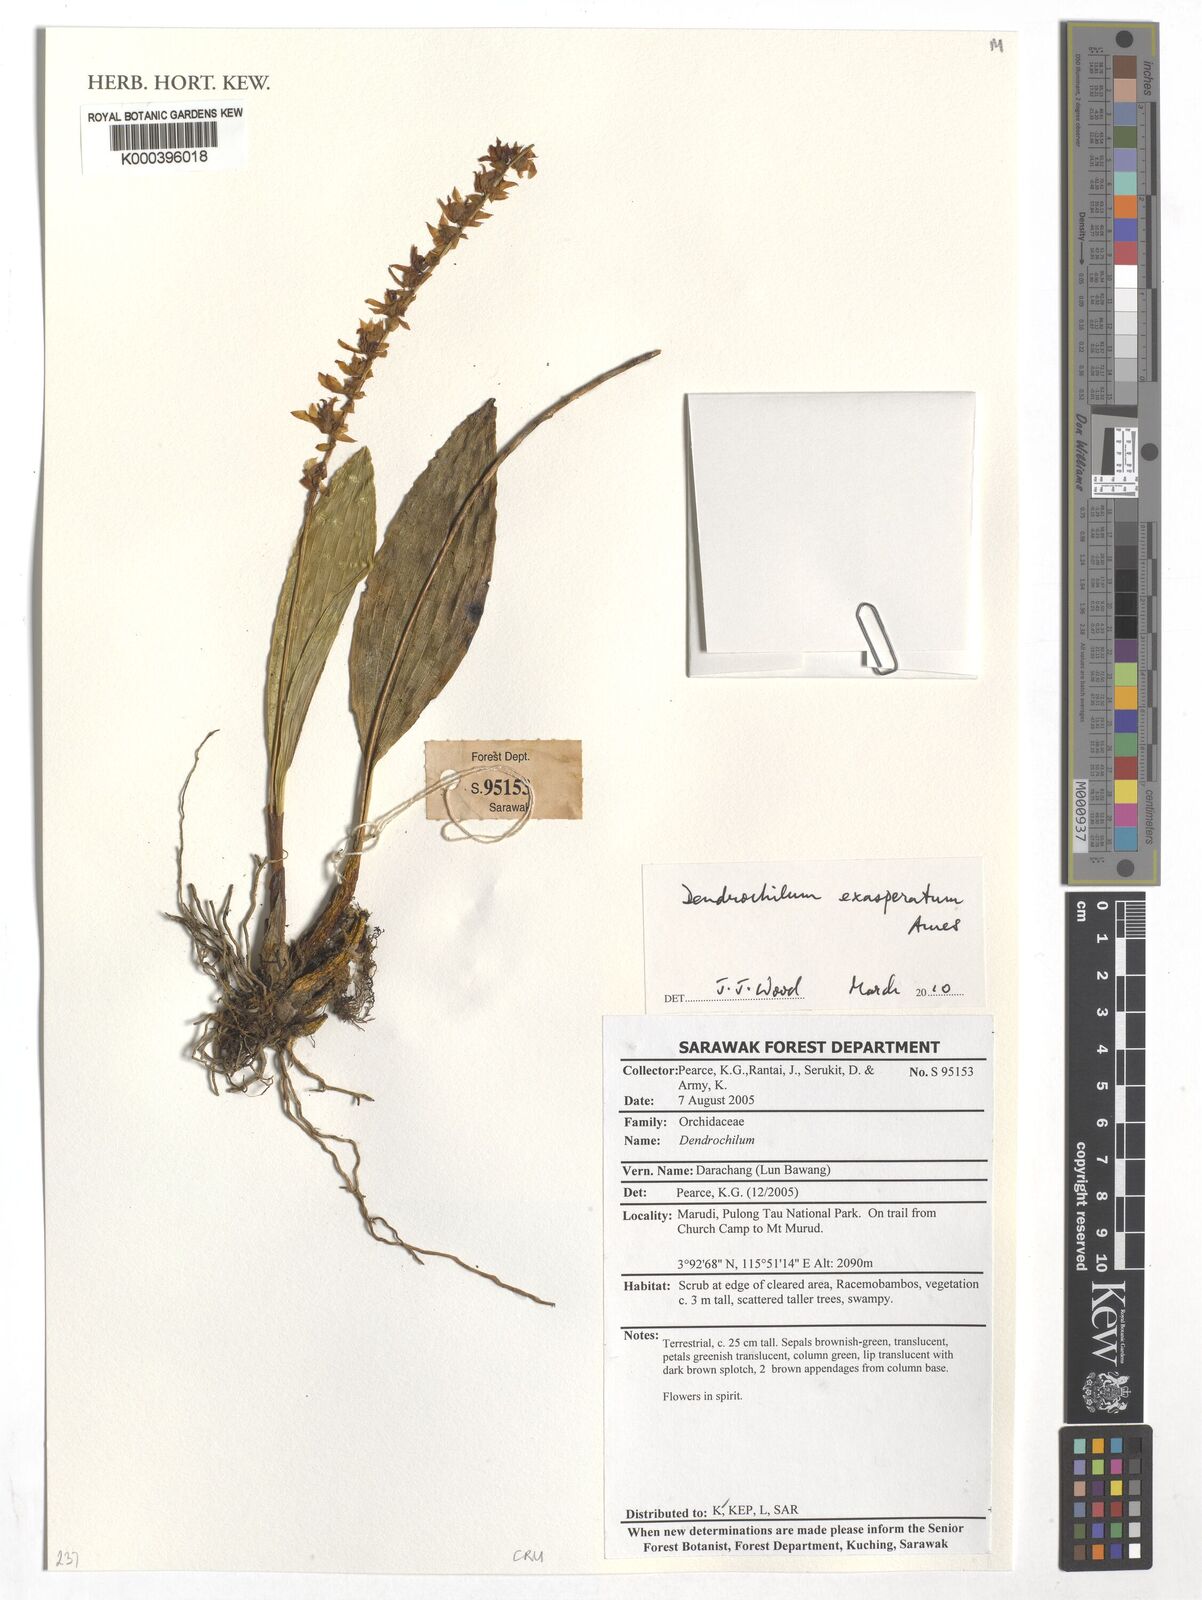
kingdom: Plantae
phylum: Tracheophyta
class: Liliopsida
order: Asparagales
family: Orchidaceae
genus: Coelogyne
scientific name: Coelogyne exasperata
